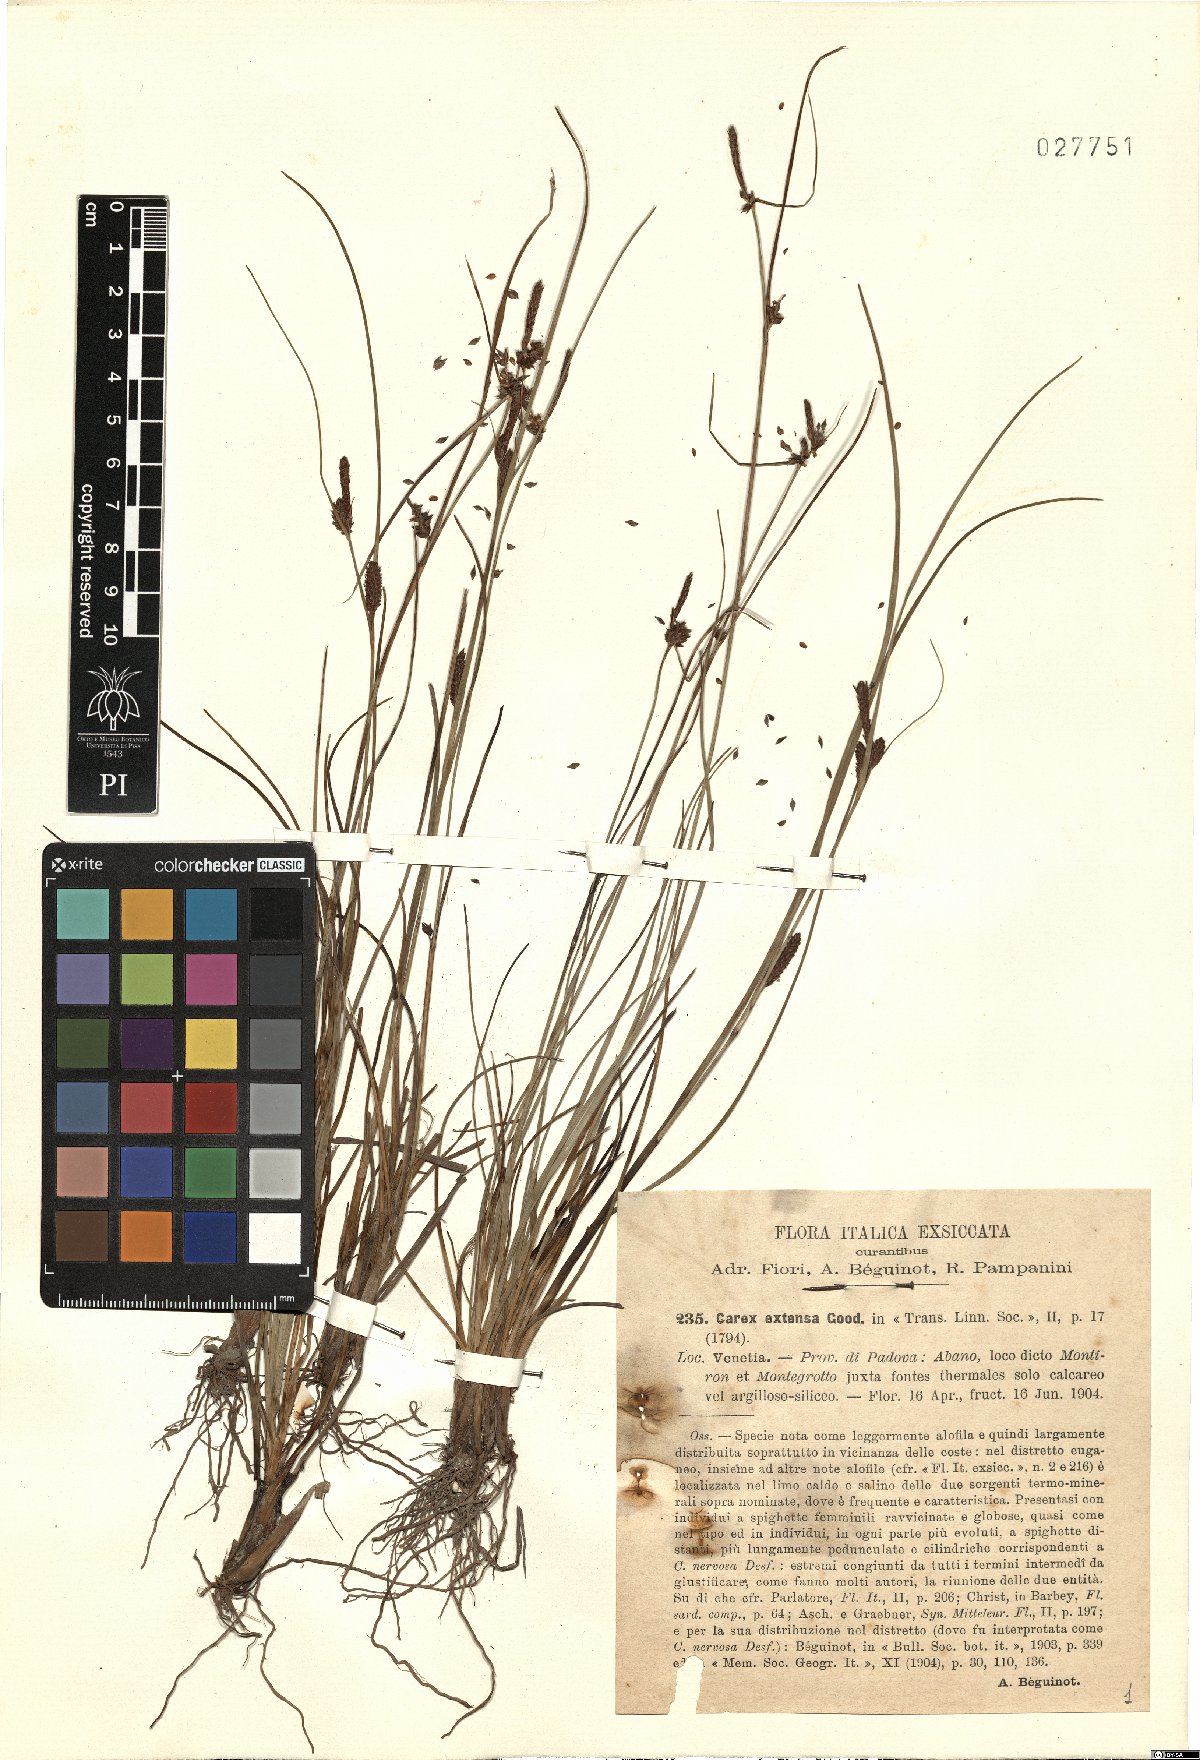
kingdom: Plantae
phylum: Tracheophyta
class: Liliopsida
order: Poales
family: Cyperaceae
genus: Carex
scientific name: Carex extensa
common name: Long-bracted sedge
